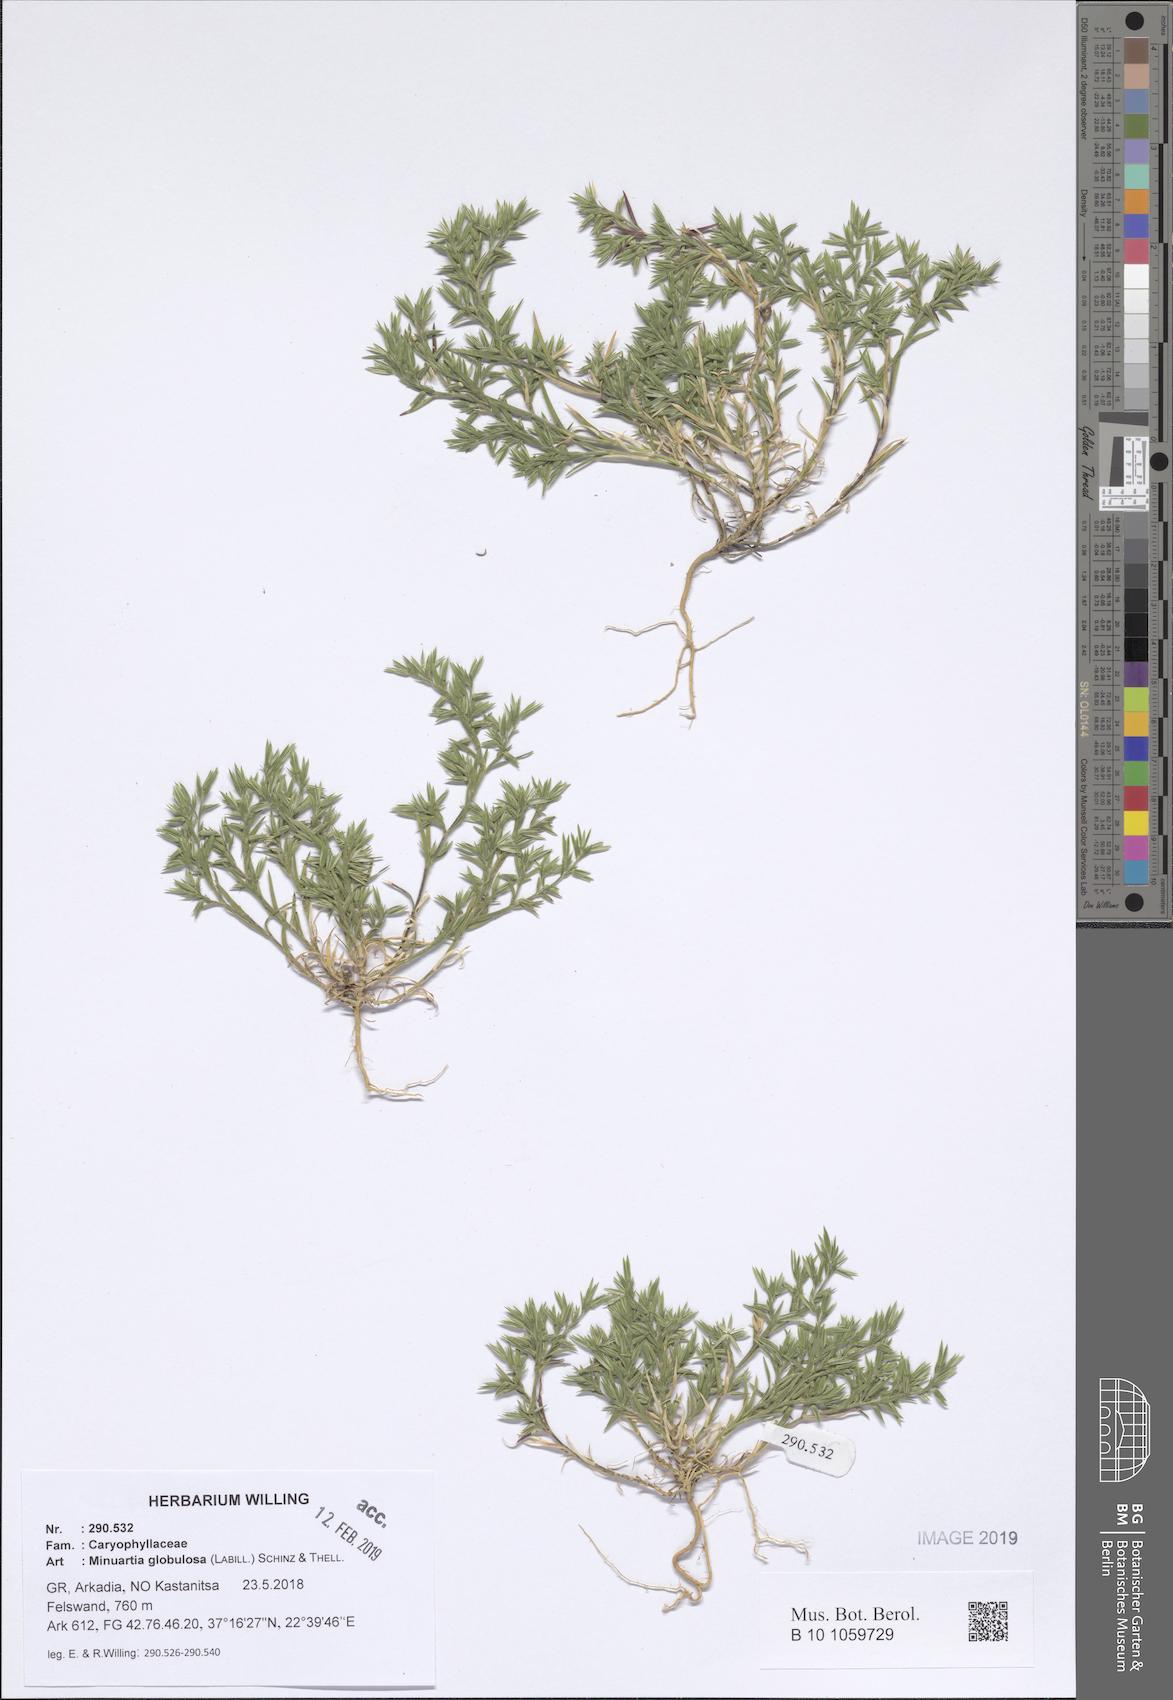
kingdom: Plantae
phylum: Tracheophyta
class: Magnoliopsida
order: Caryophyllales
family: Caryophyllaceae
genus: Minuartia
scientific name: Minuartia globulosa
